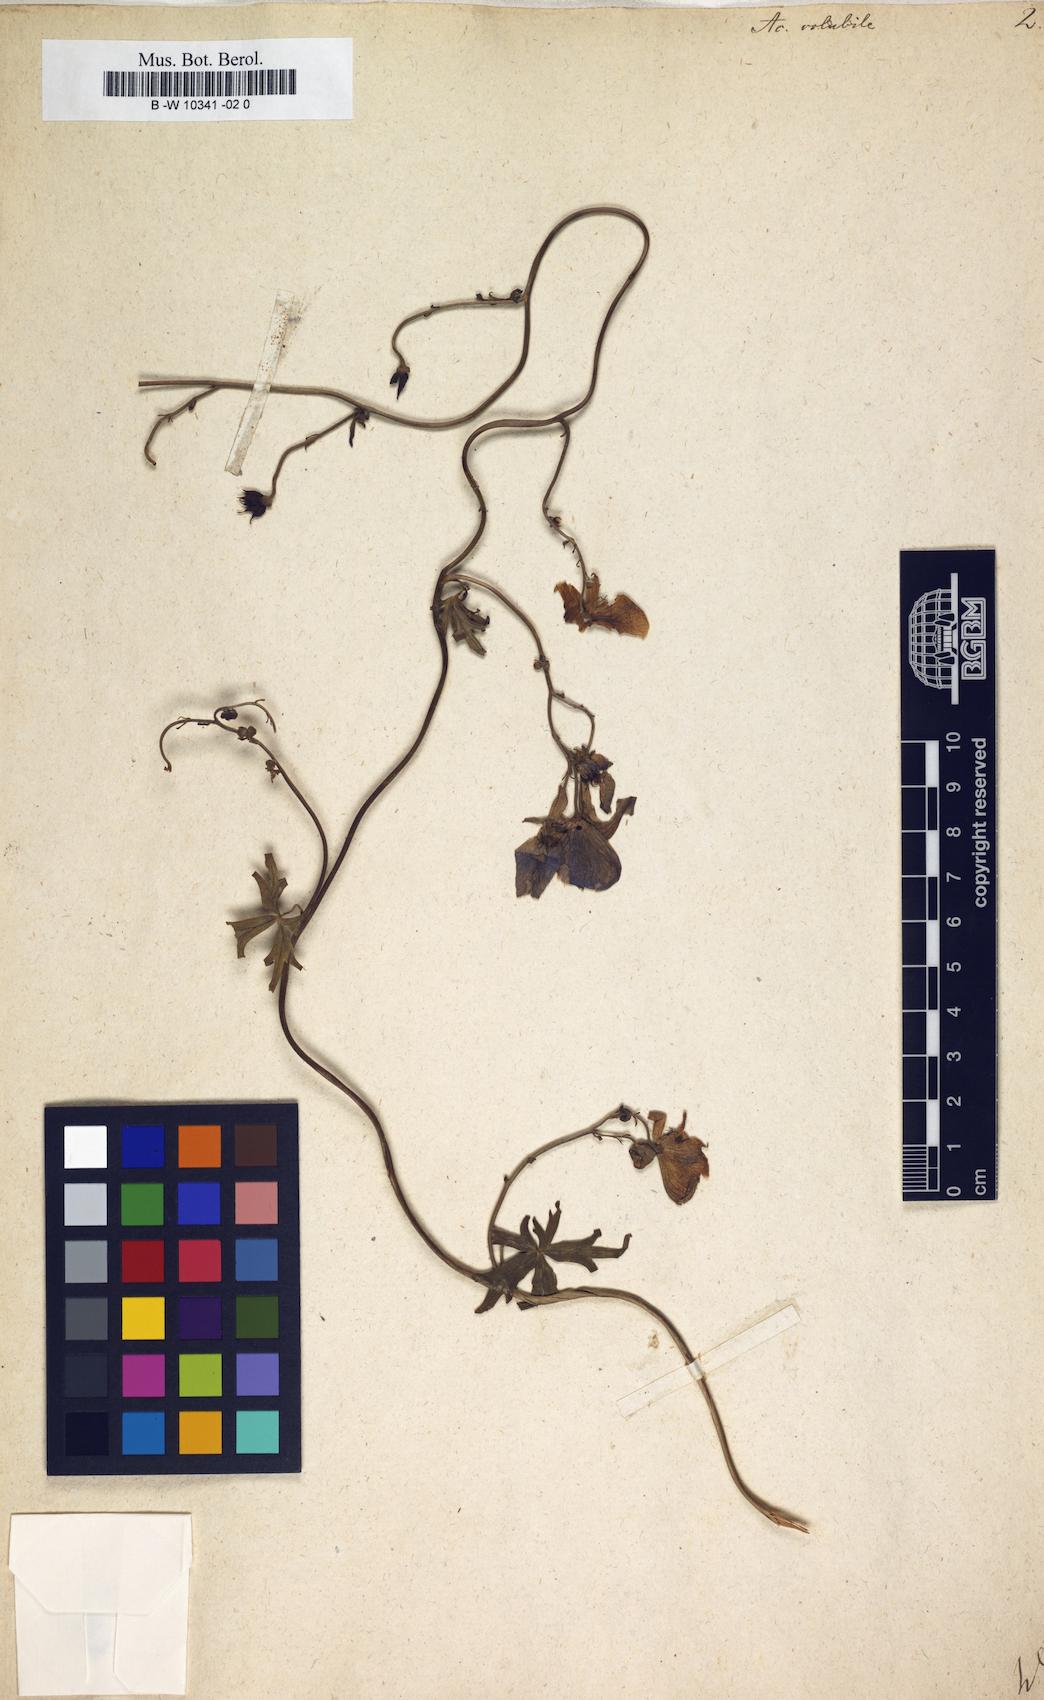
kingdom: Plantae
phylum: Tracheophyta
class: Magnoliopsida
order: Ranunculales
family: Ranunculaceae
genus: Aconitum
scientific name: Aconitum volubile
